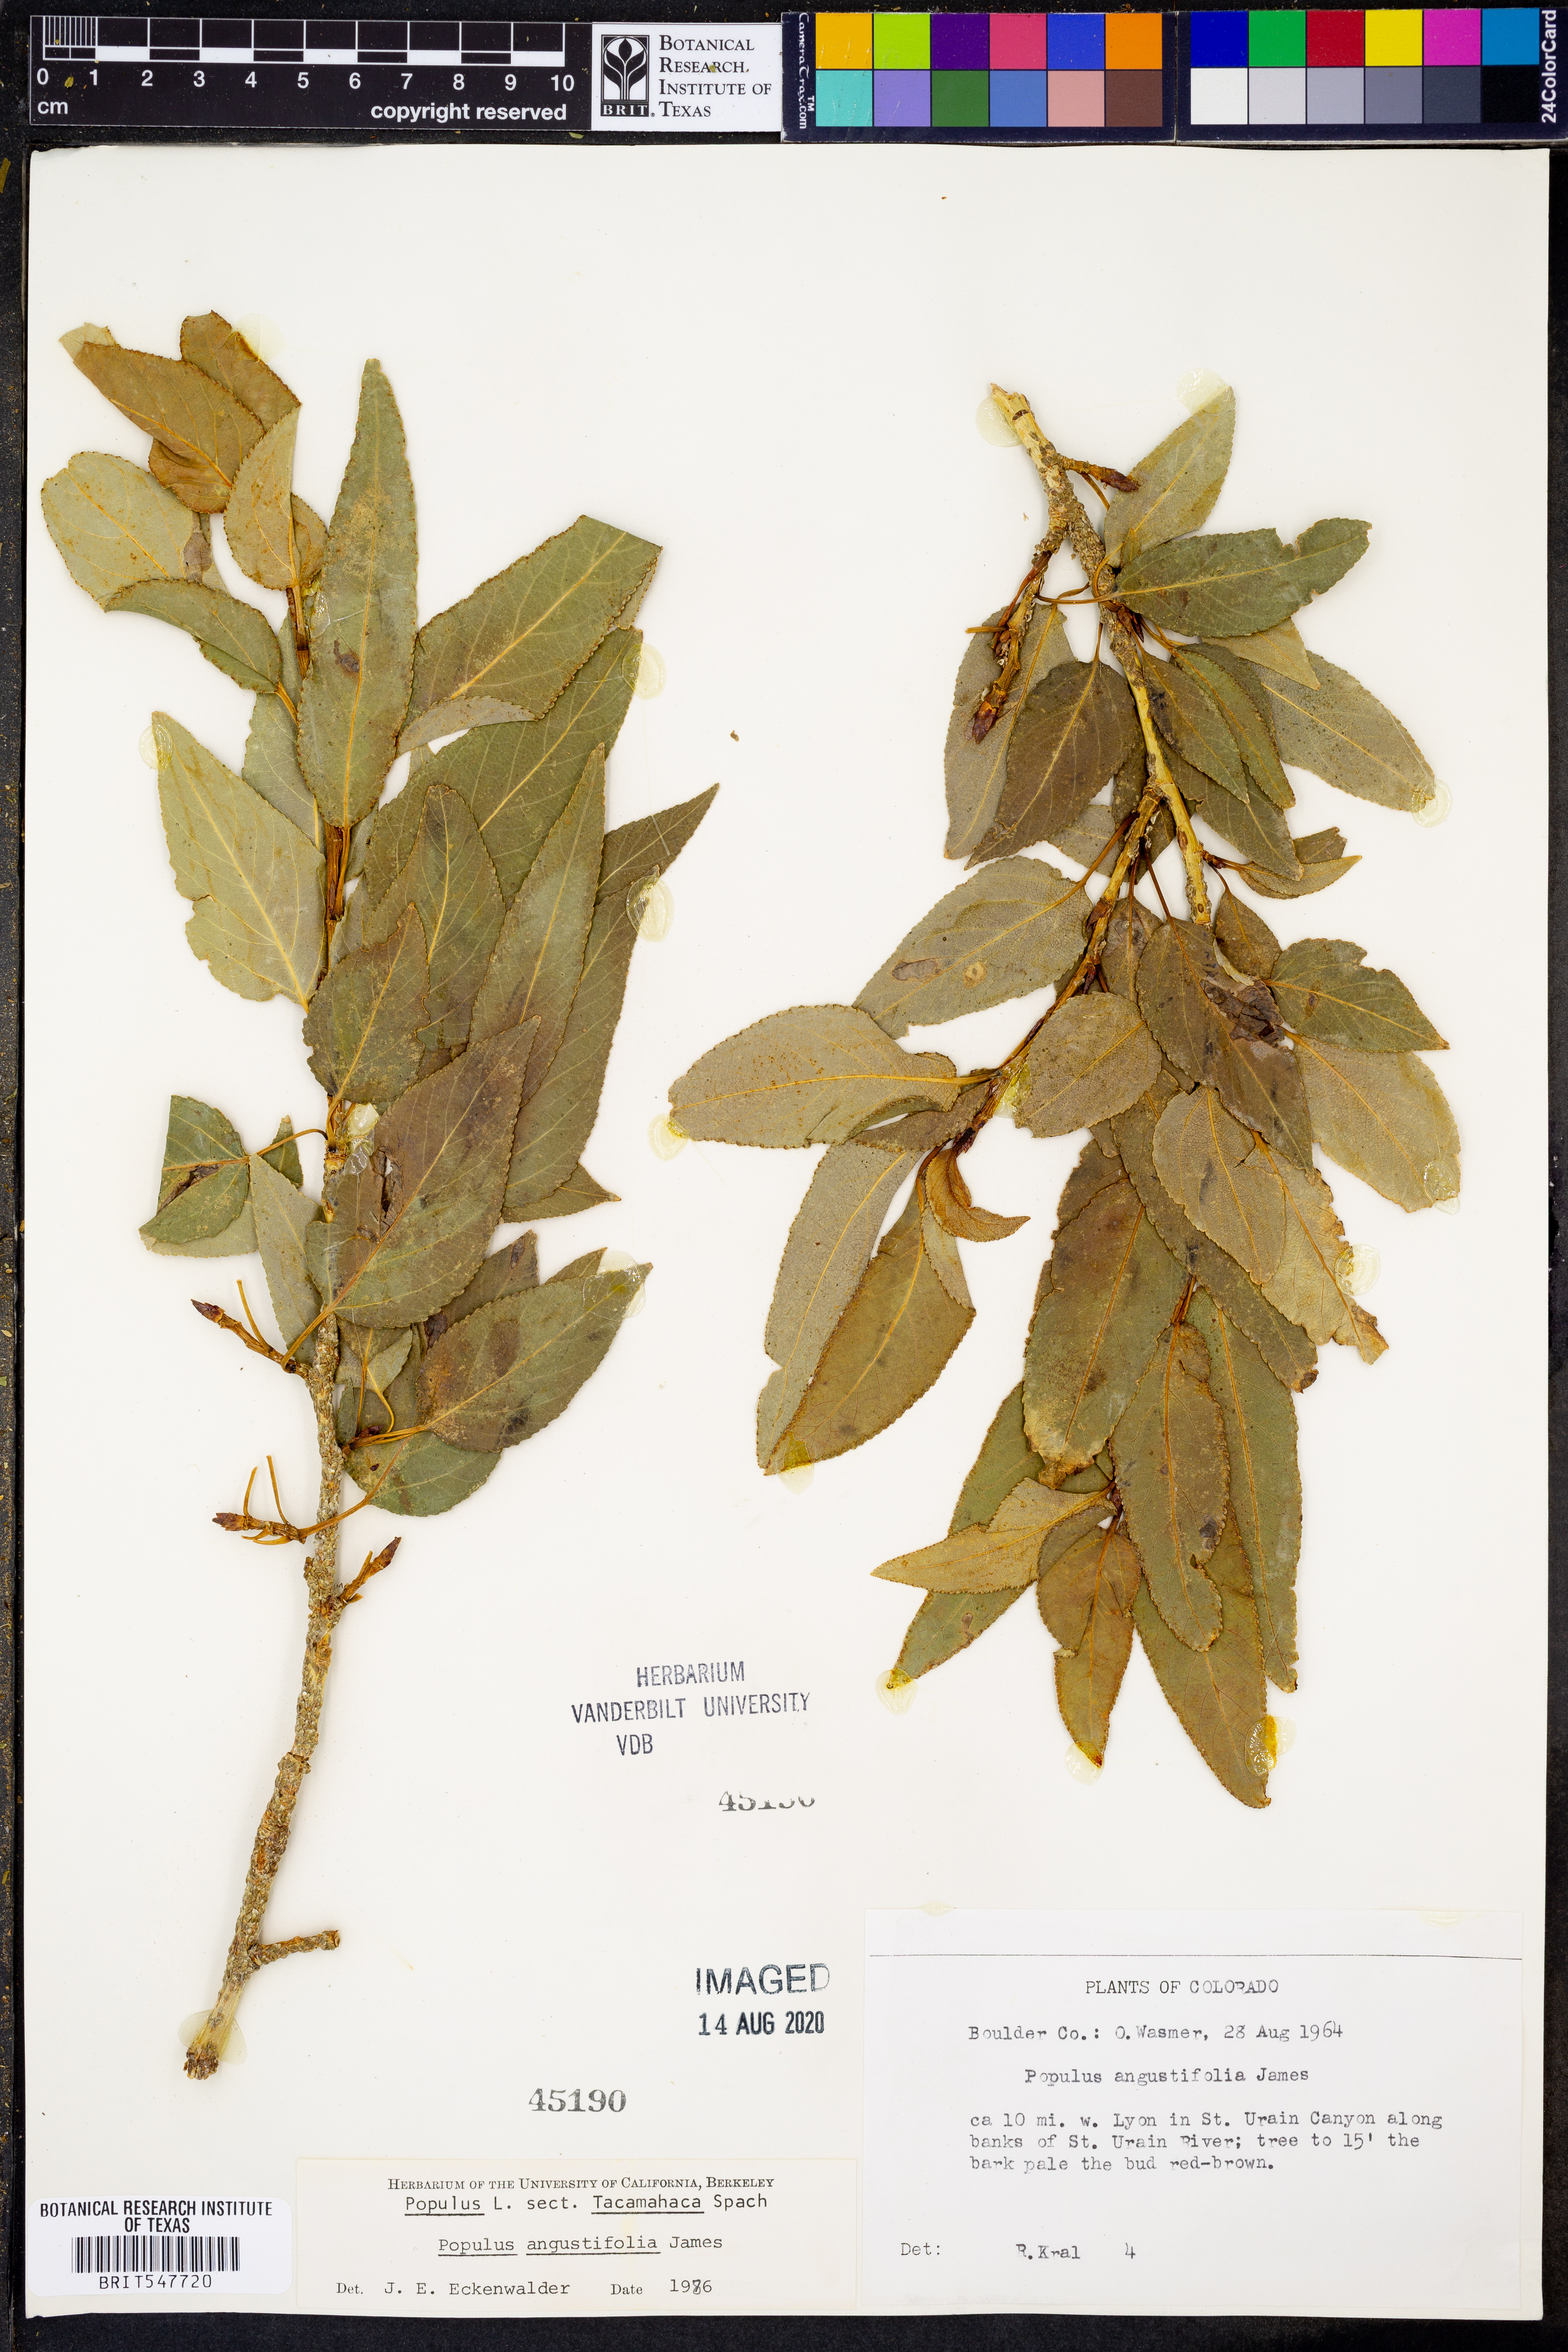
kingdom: Plantae
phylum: Tracheophyta
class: Magnoliopsida
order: Malpighiales
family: Salicaceae
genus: Populus
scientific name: Populus angustifolia
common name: Willow cottonwood
